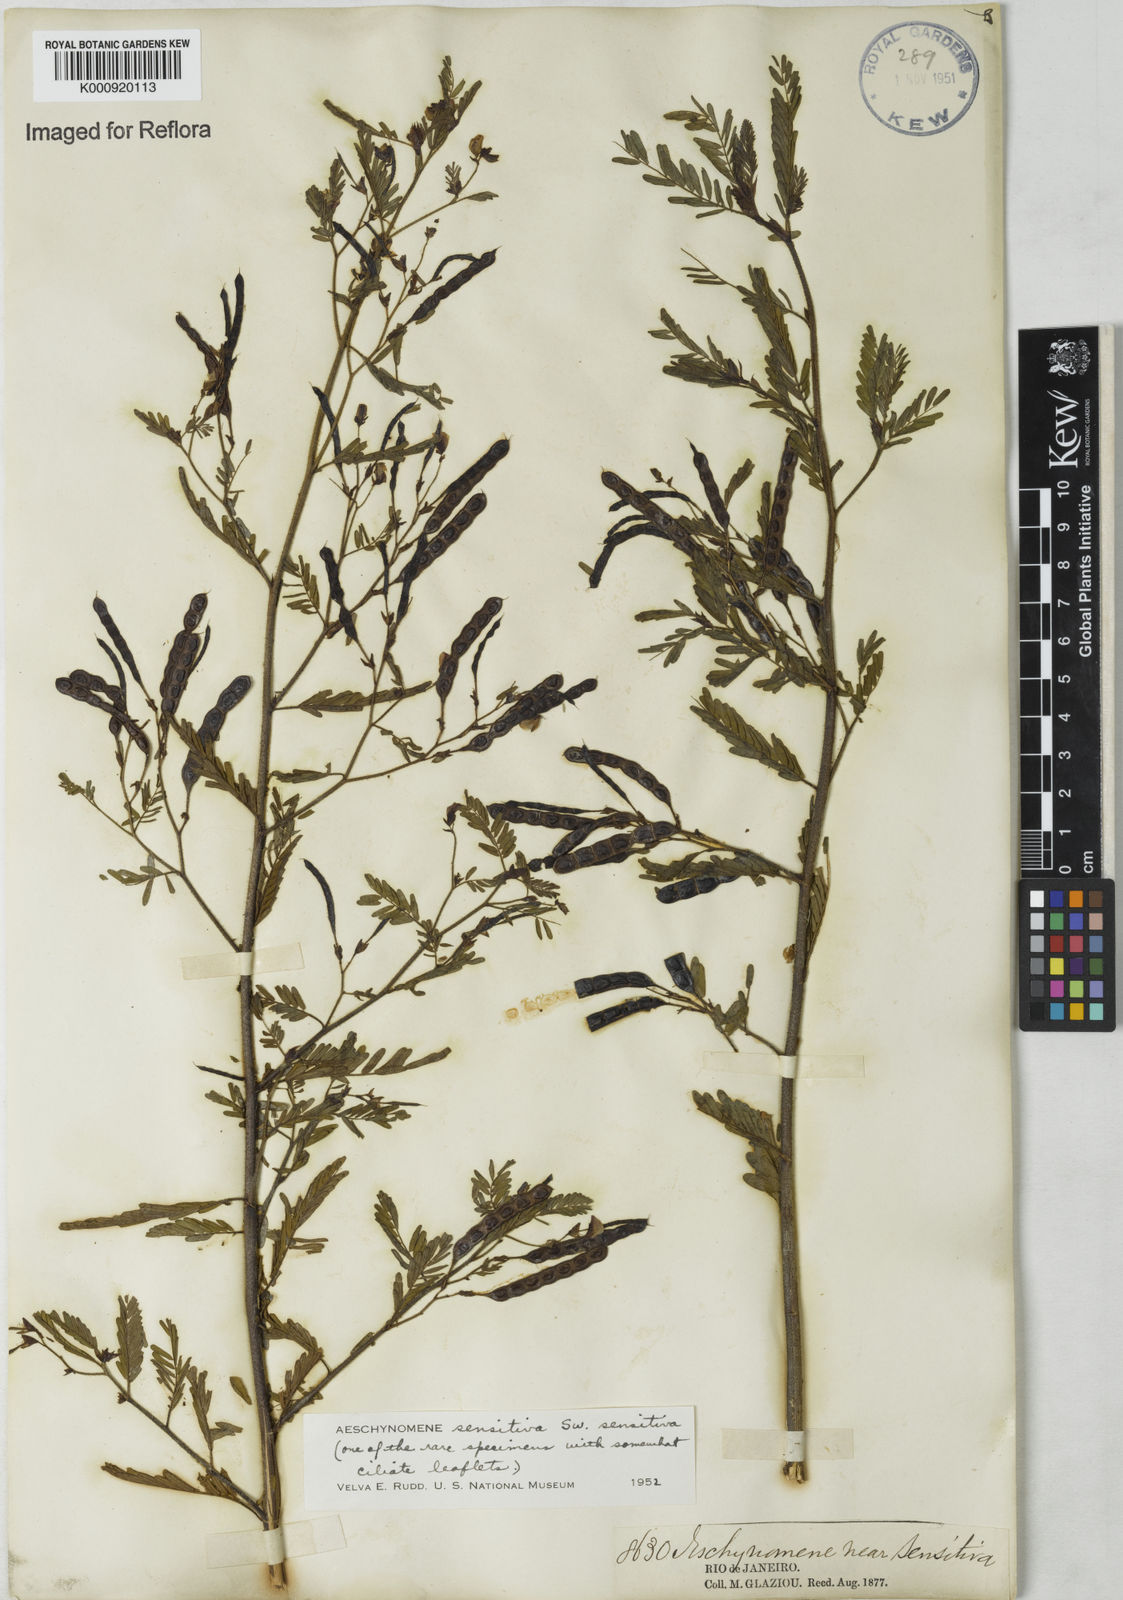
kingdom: Plantae
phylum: Tracheophyta
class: Magnoliopsida
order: Fabales
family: Fabaceae
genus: Aeschynomene
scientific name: Aeschynomene sensitiva
